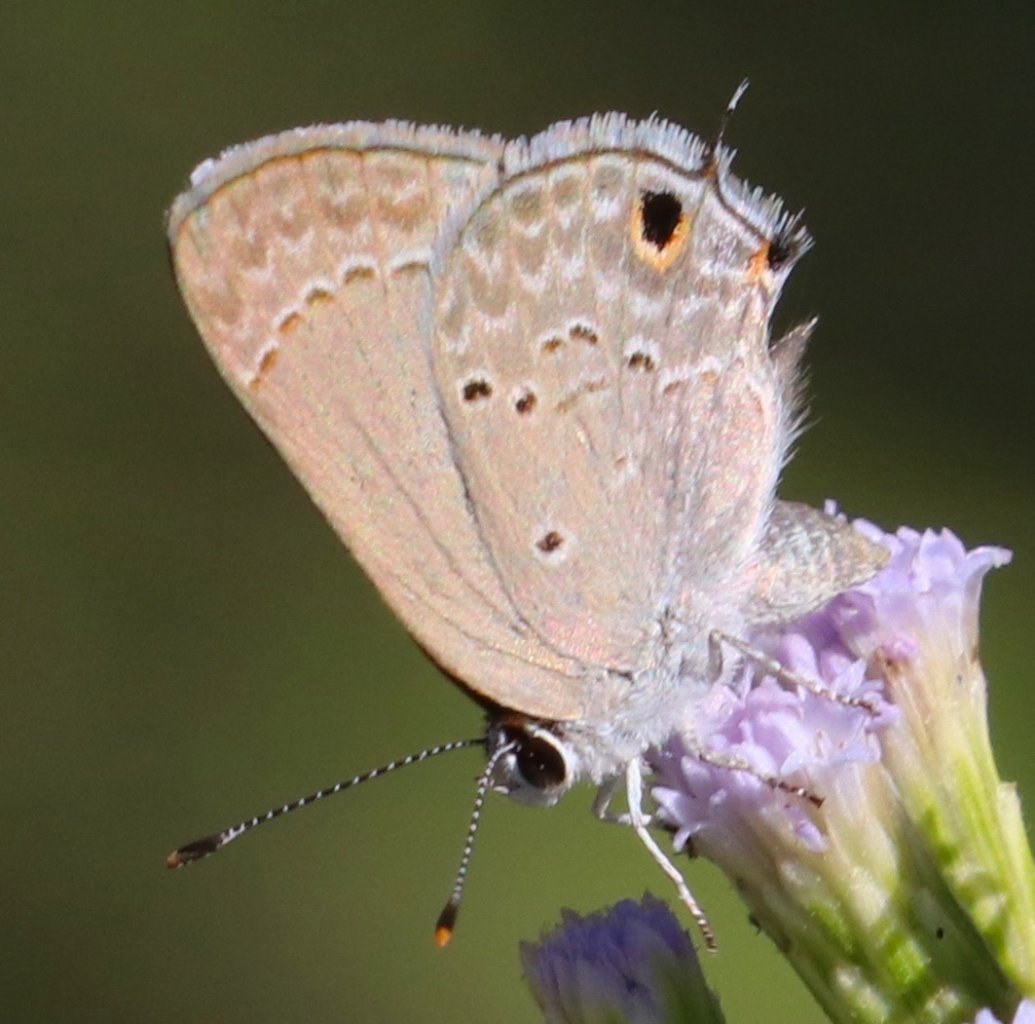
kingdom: Animalia
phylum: Arthropoda
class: Insecta
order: Lepidoptera
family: Lycaenidae
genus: Callicista
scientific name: Callicista columella
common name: Mallow Scrub-Hairstreak
